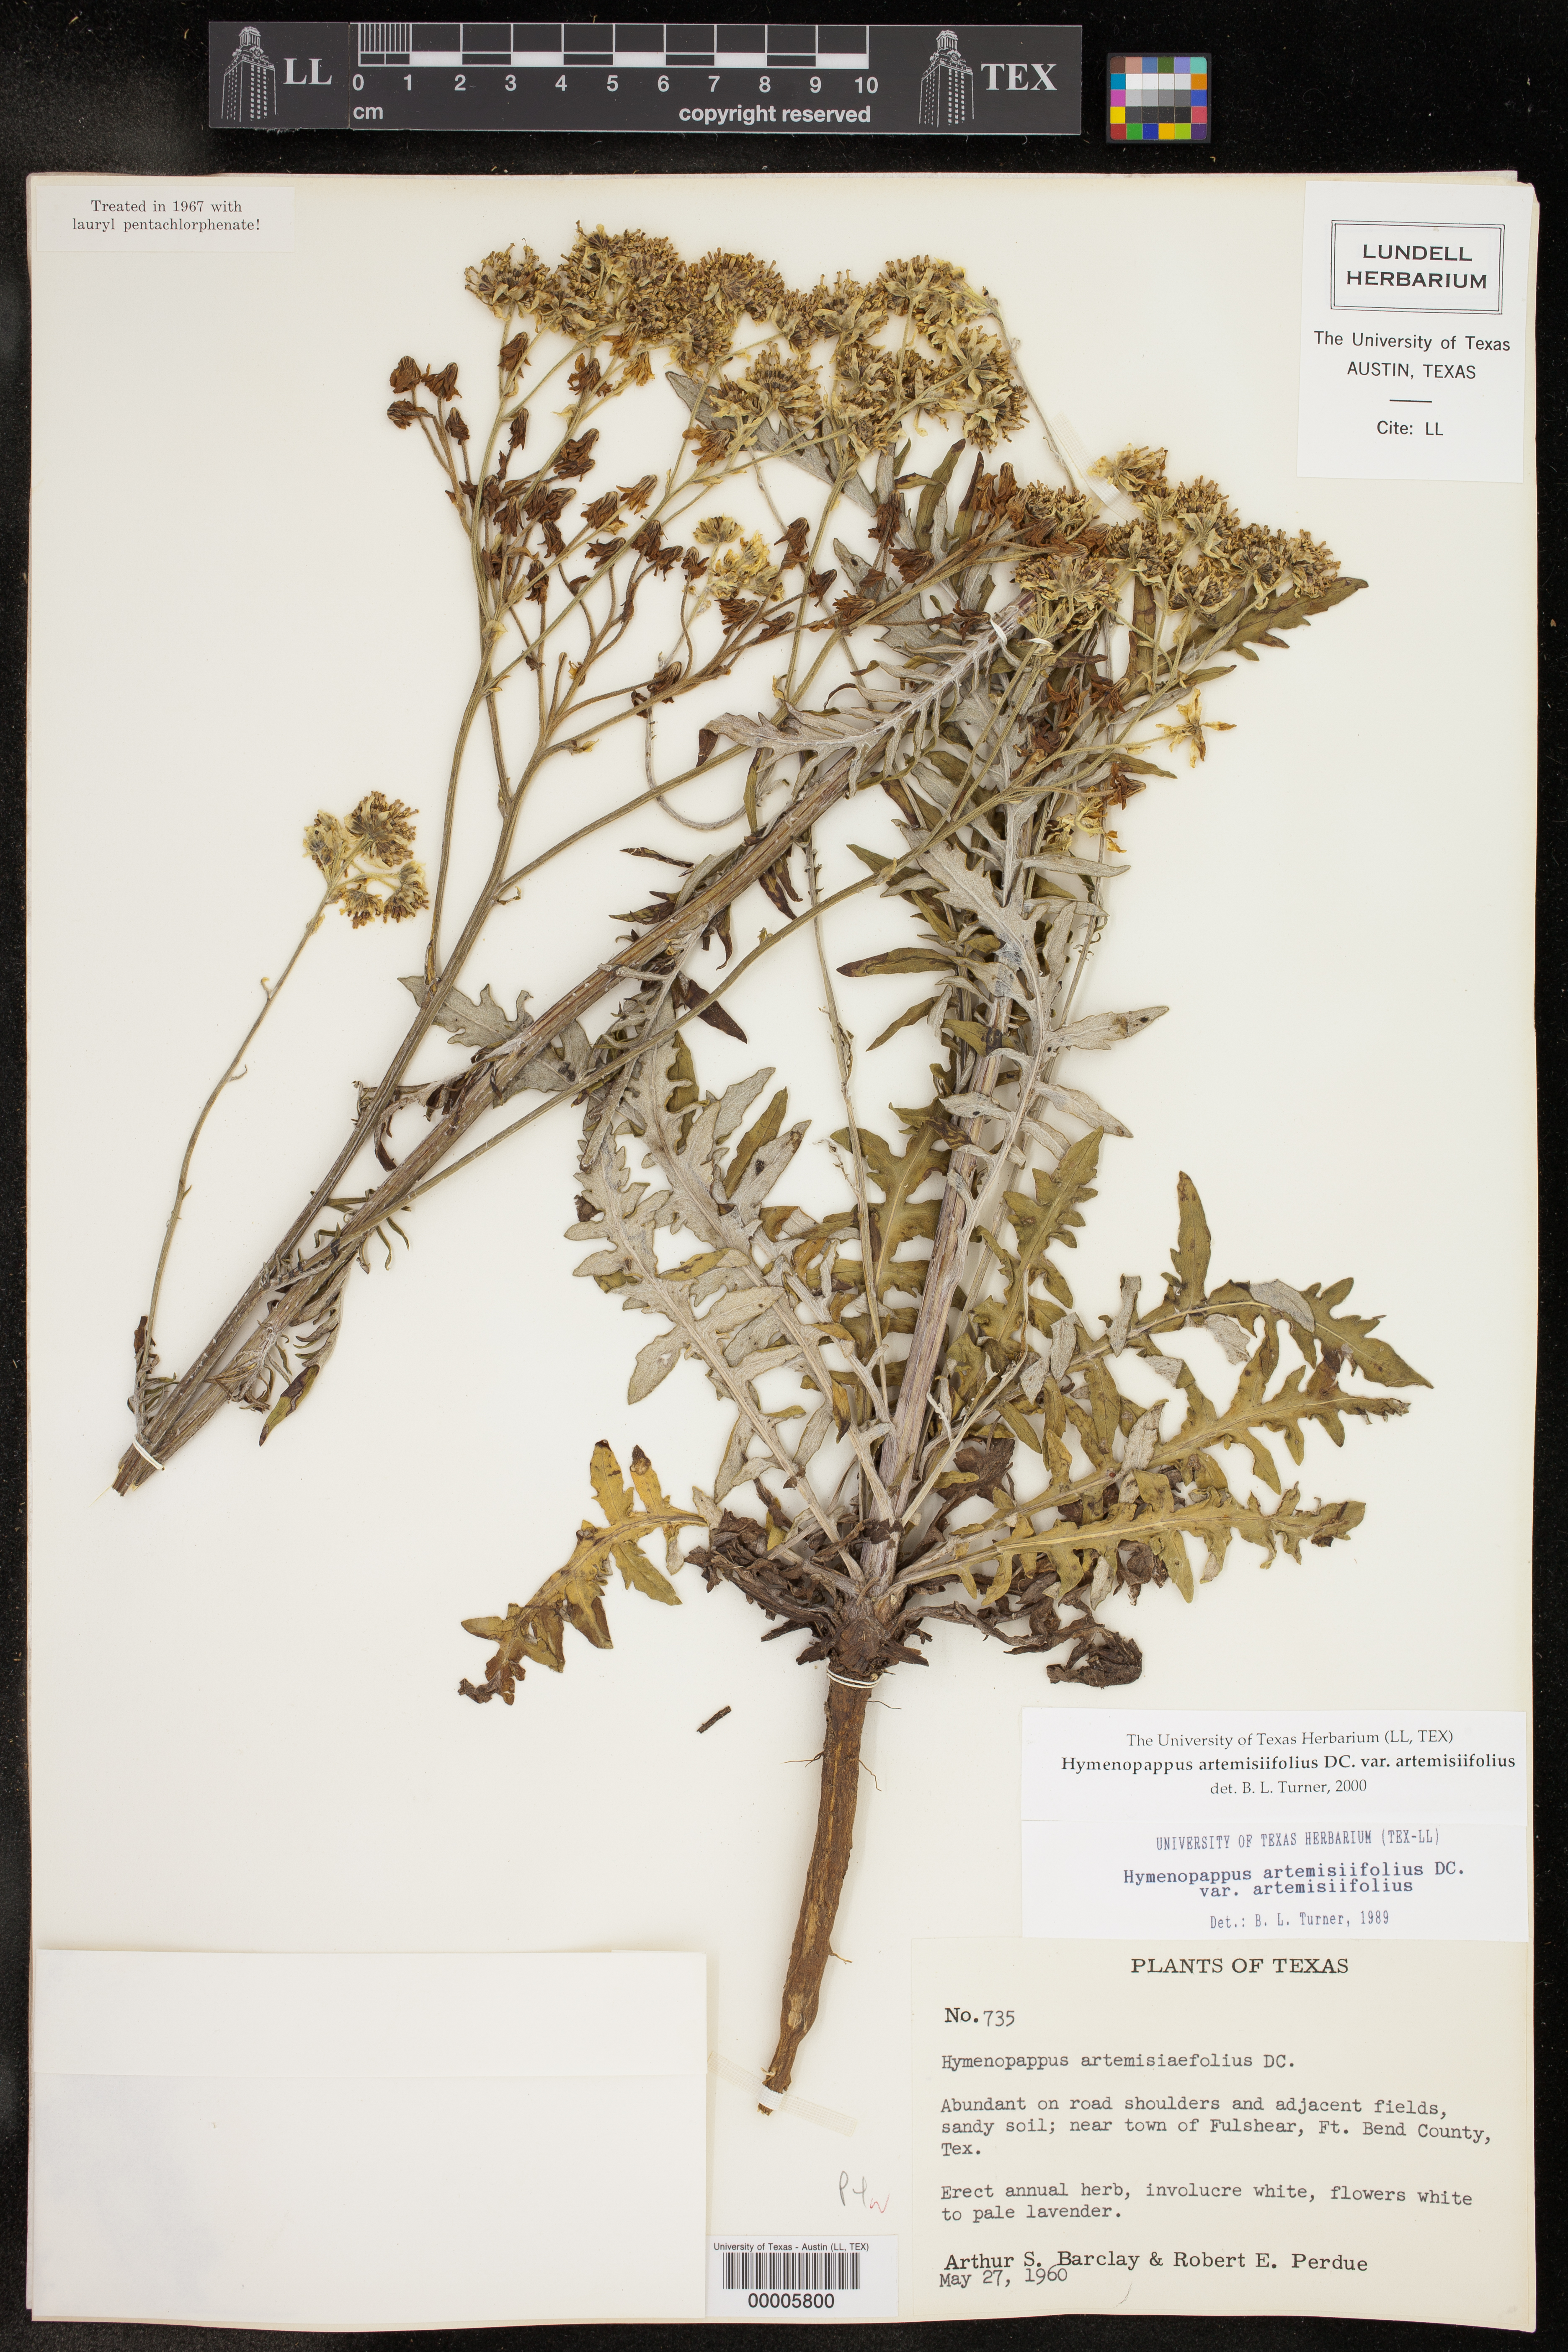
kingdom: Plantae
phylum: Tracheophyta
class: Magnoliopsida
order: Asterales
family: Asteraceae
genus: Hymenopappus
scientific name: Hymenopappus artemisiifolius
